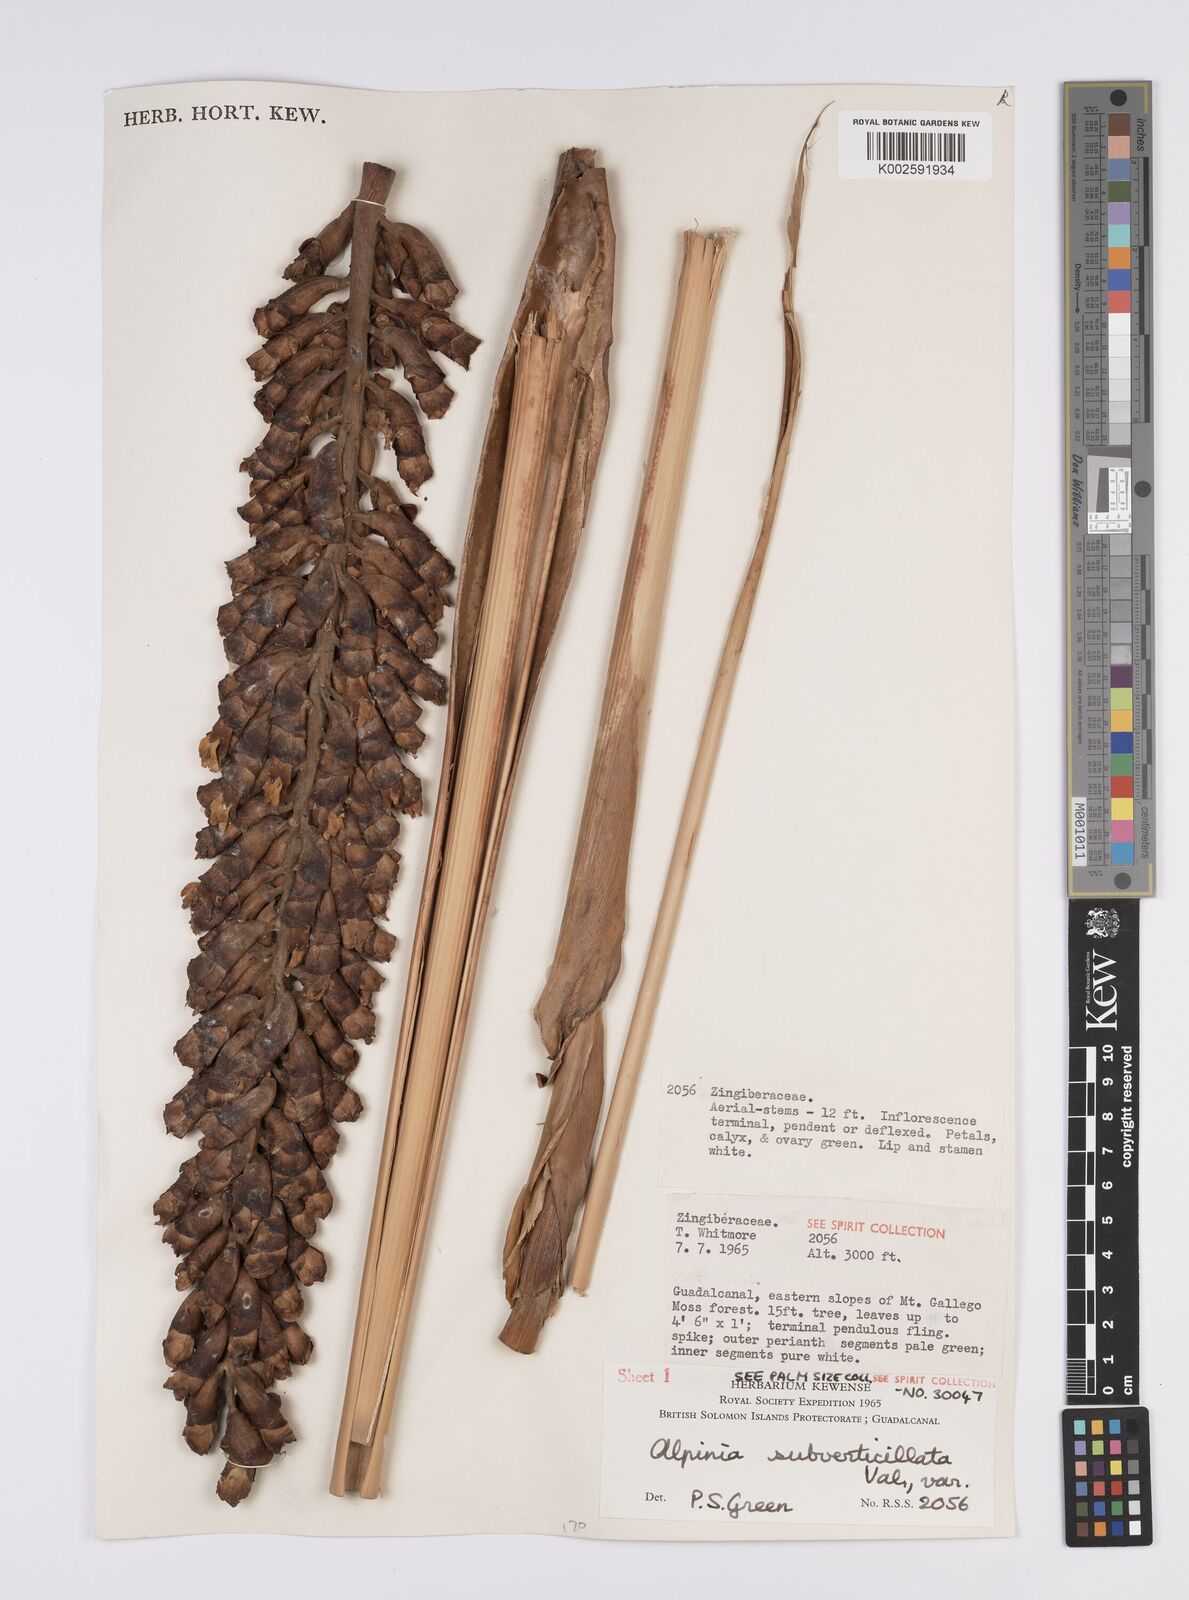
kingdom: Plantae
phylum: Tracheophyta
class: Liliopsida
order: Zingiberales
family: Zingiberaceae
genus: Alpinia
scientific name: Alpinia subverticillata
